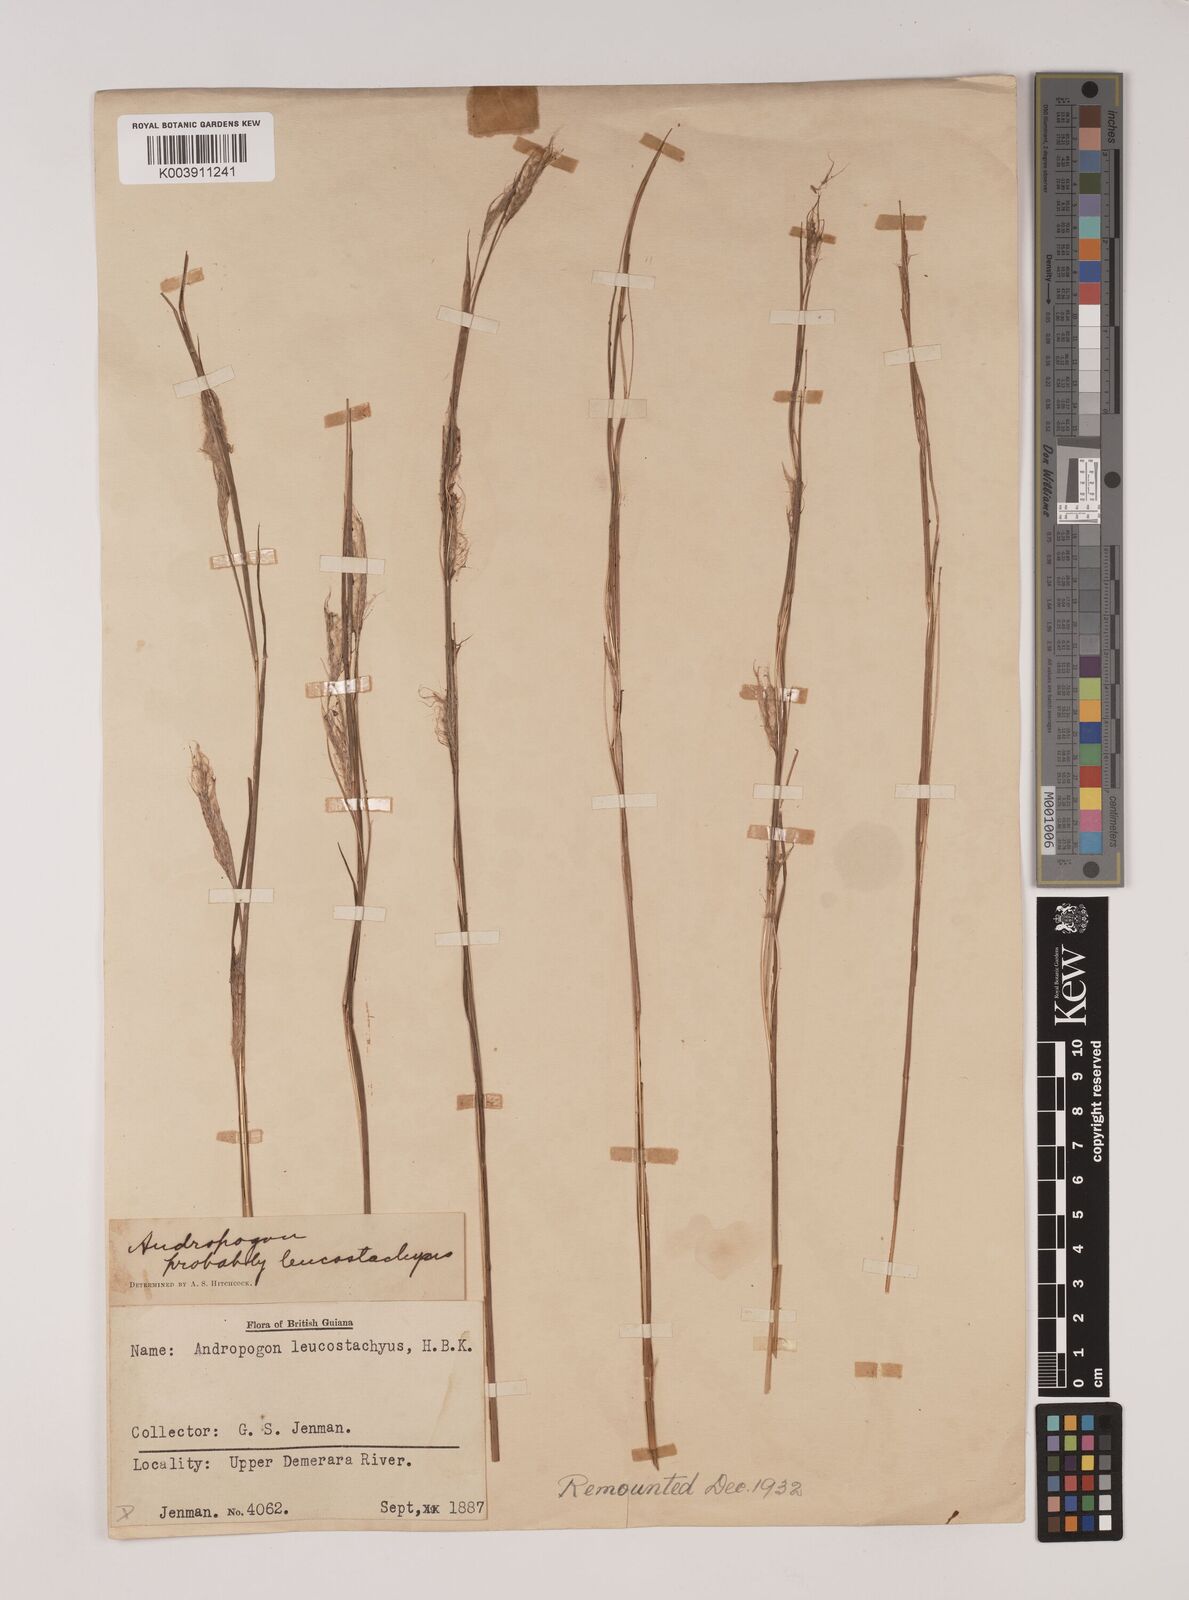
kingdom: Plantae
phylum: Tracheophyta
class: Liliopsida
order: Poales
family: Poaceae
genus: Andropogon
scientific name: Andropogon leucostachyus
